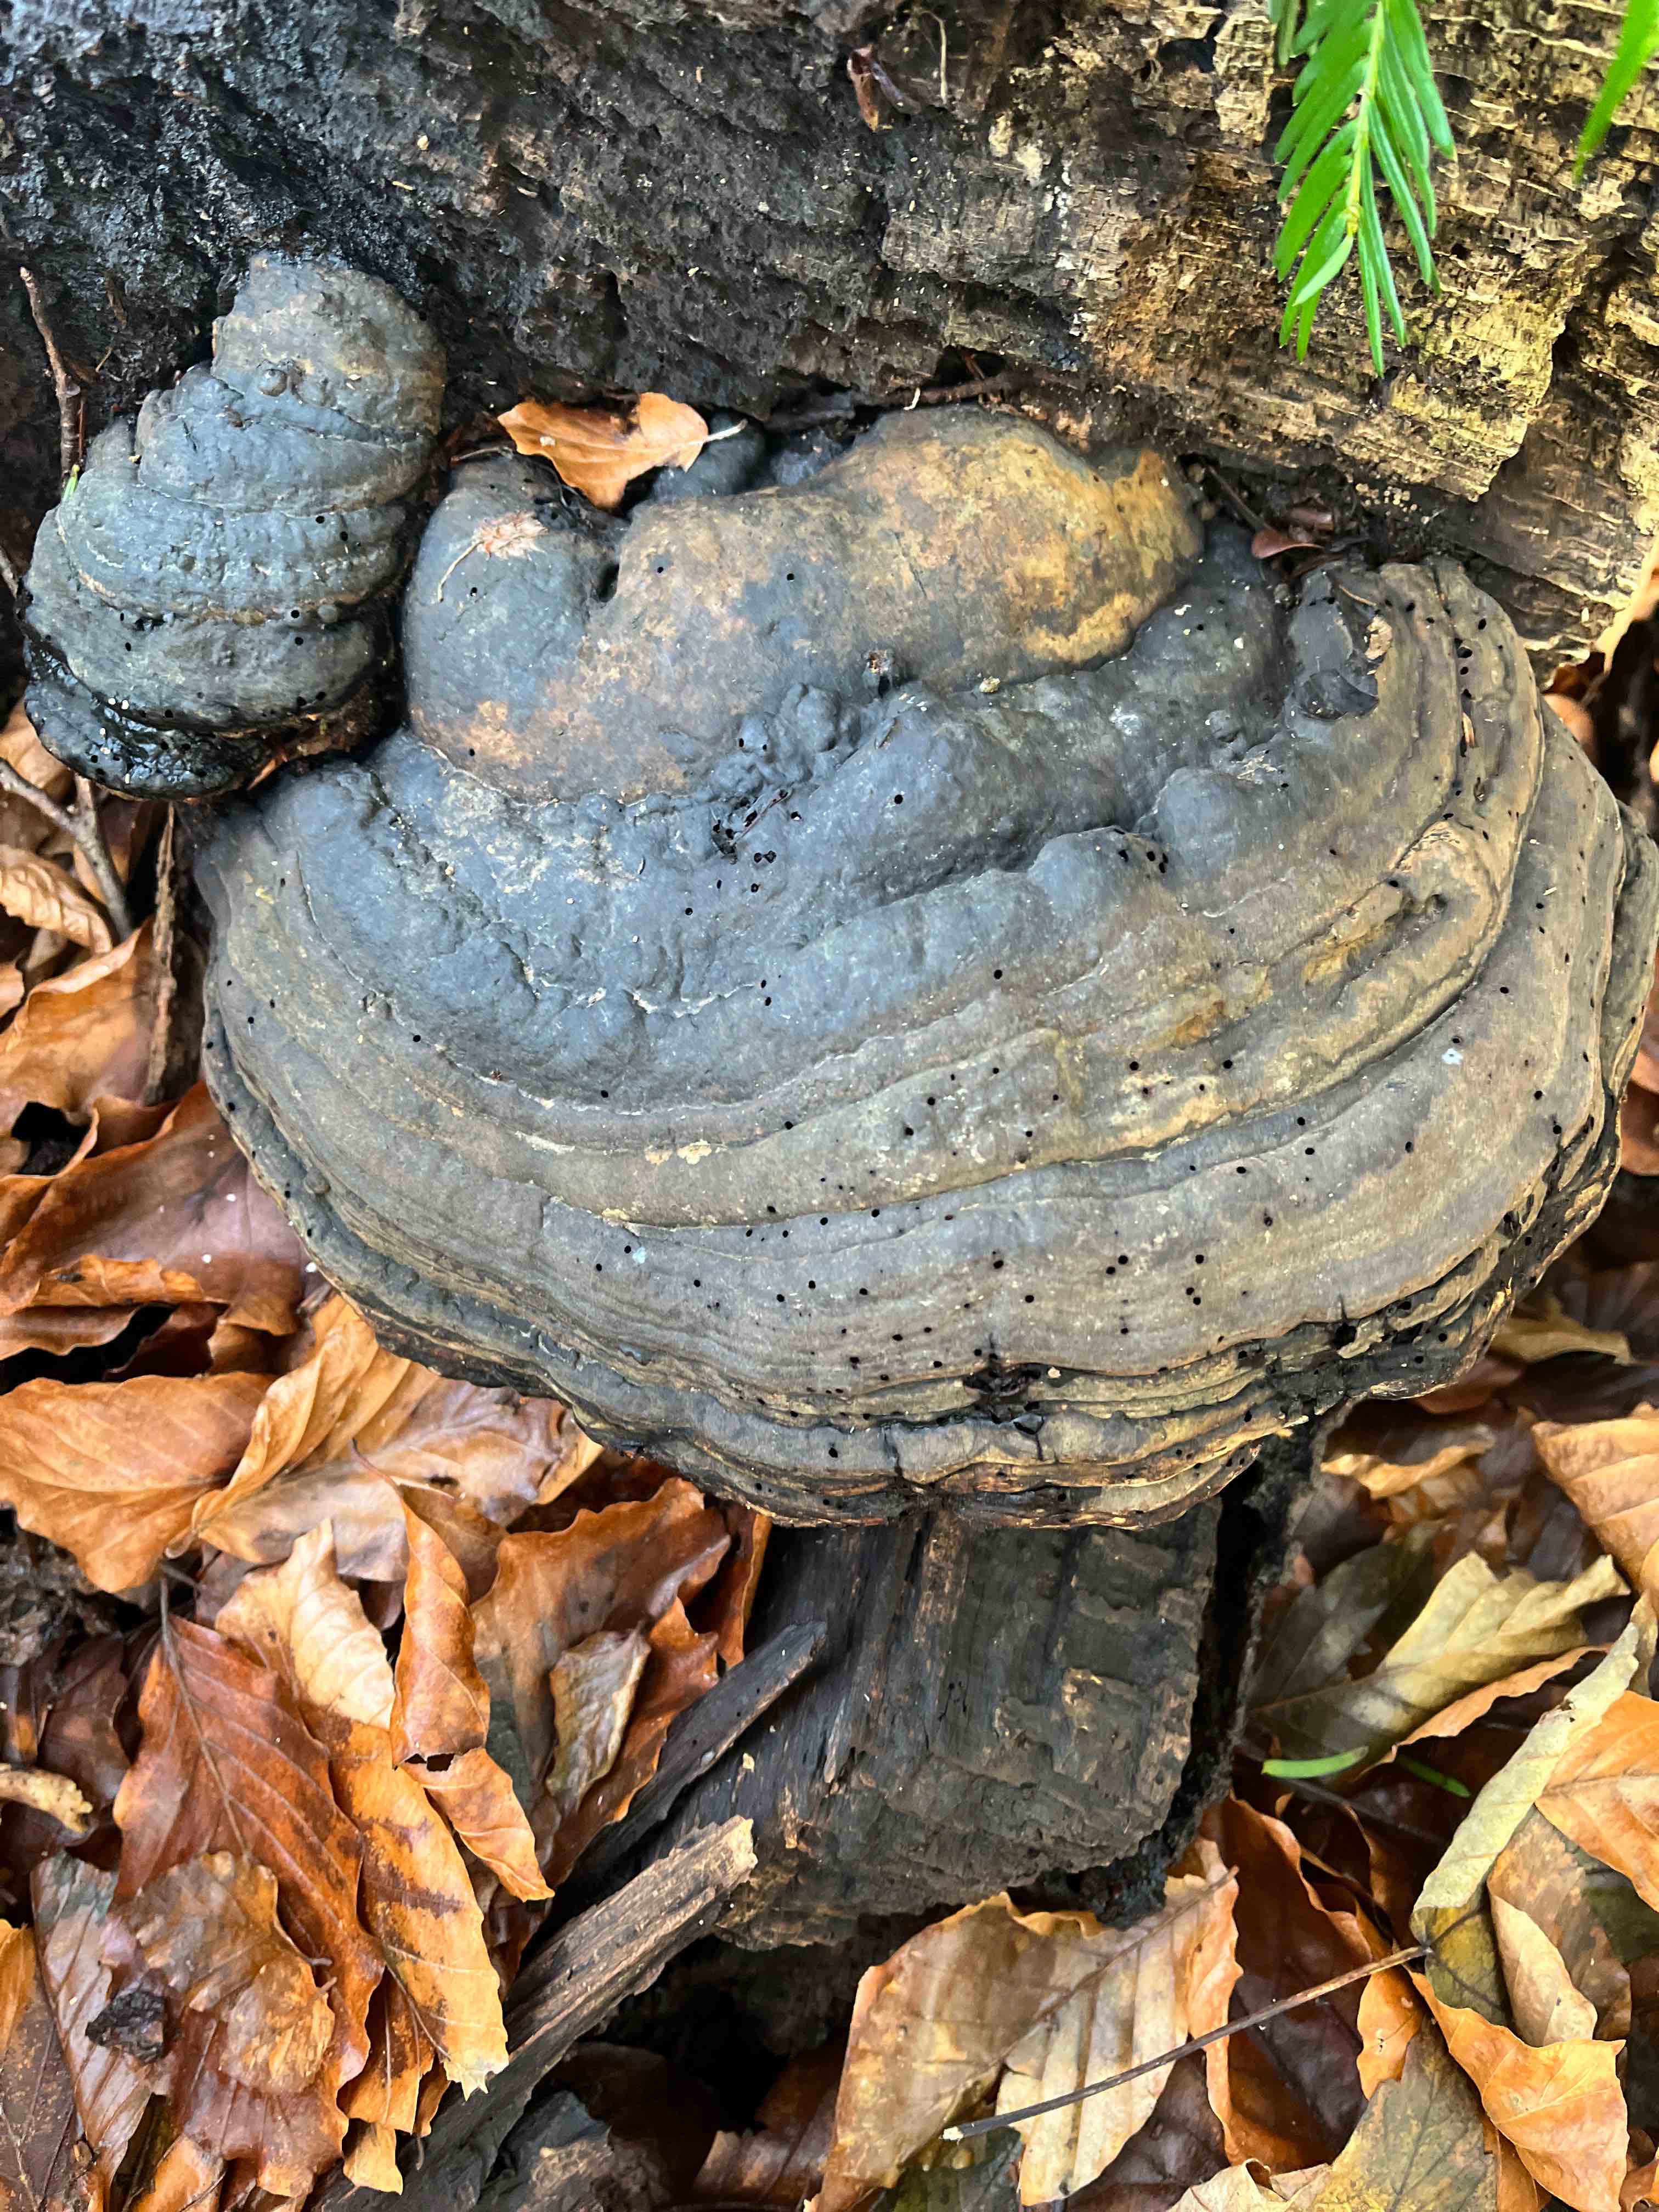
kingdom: Fungi
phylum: Basidiomycota
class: Agaricomycetes
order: Polyporales
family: Polyporaceae
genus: Fomes
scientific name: Fomes fomentarius
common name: tøndersvamp
